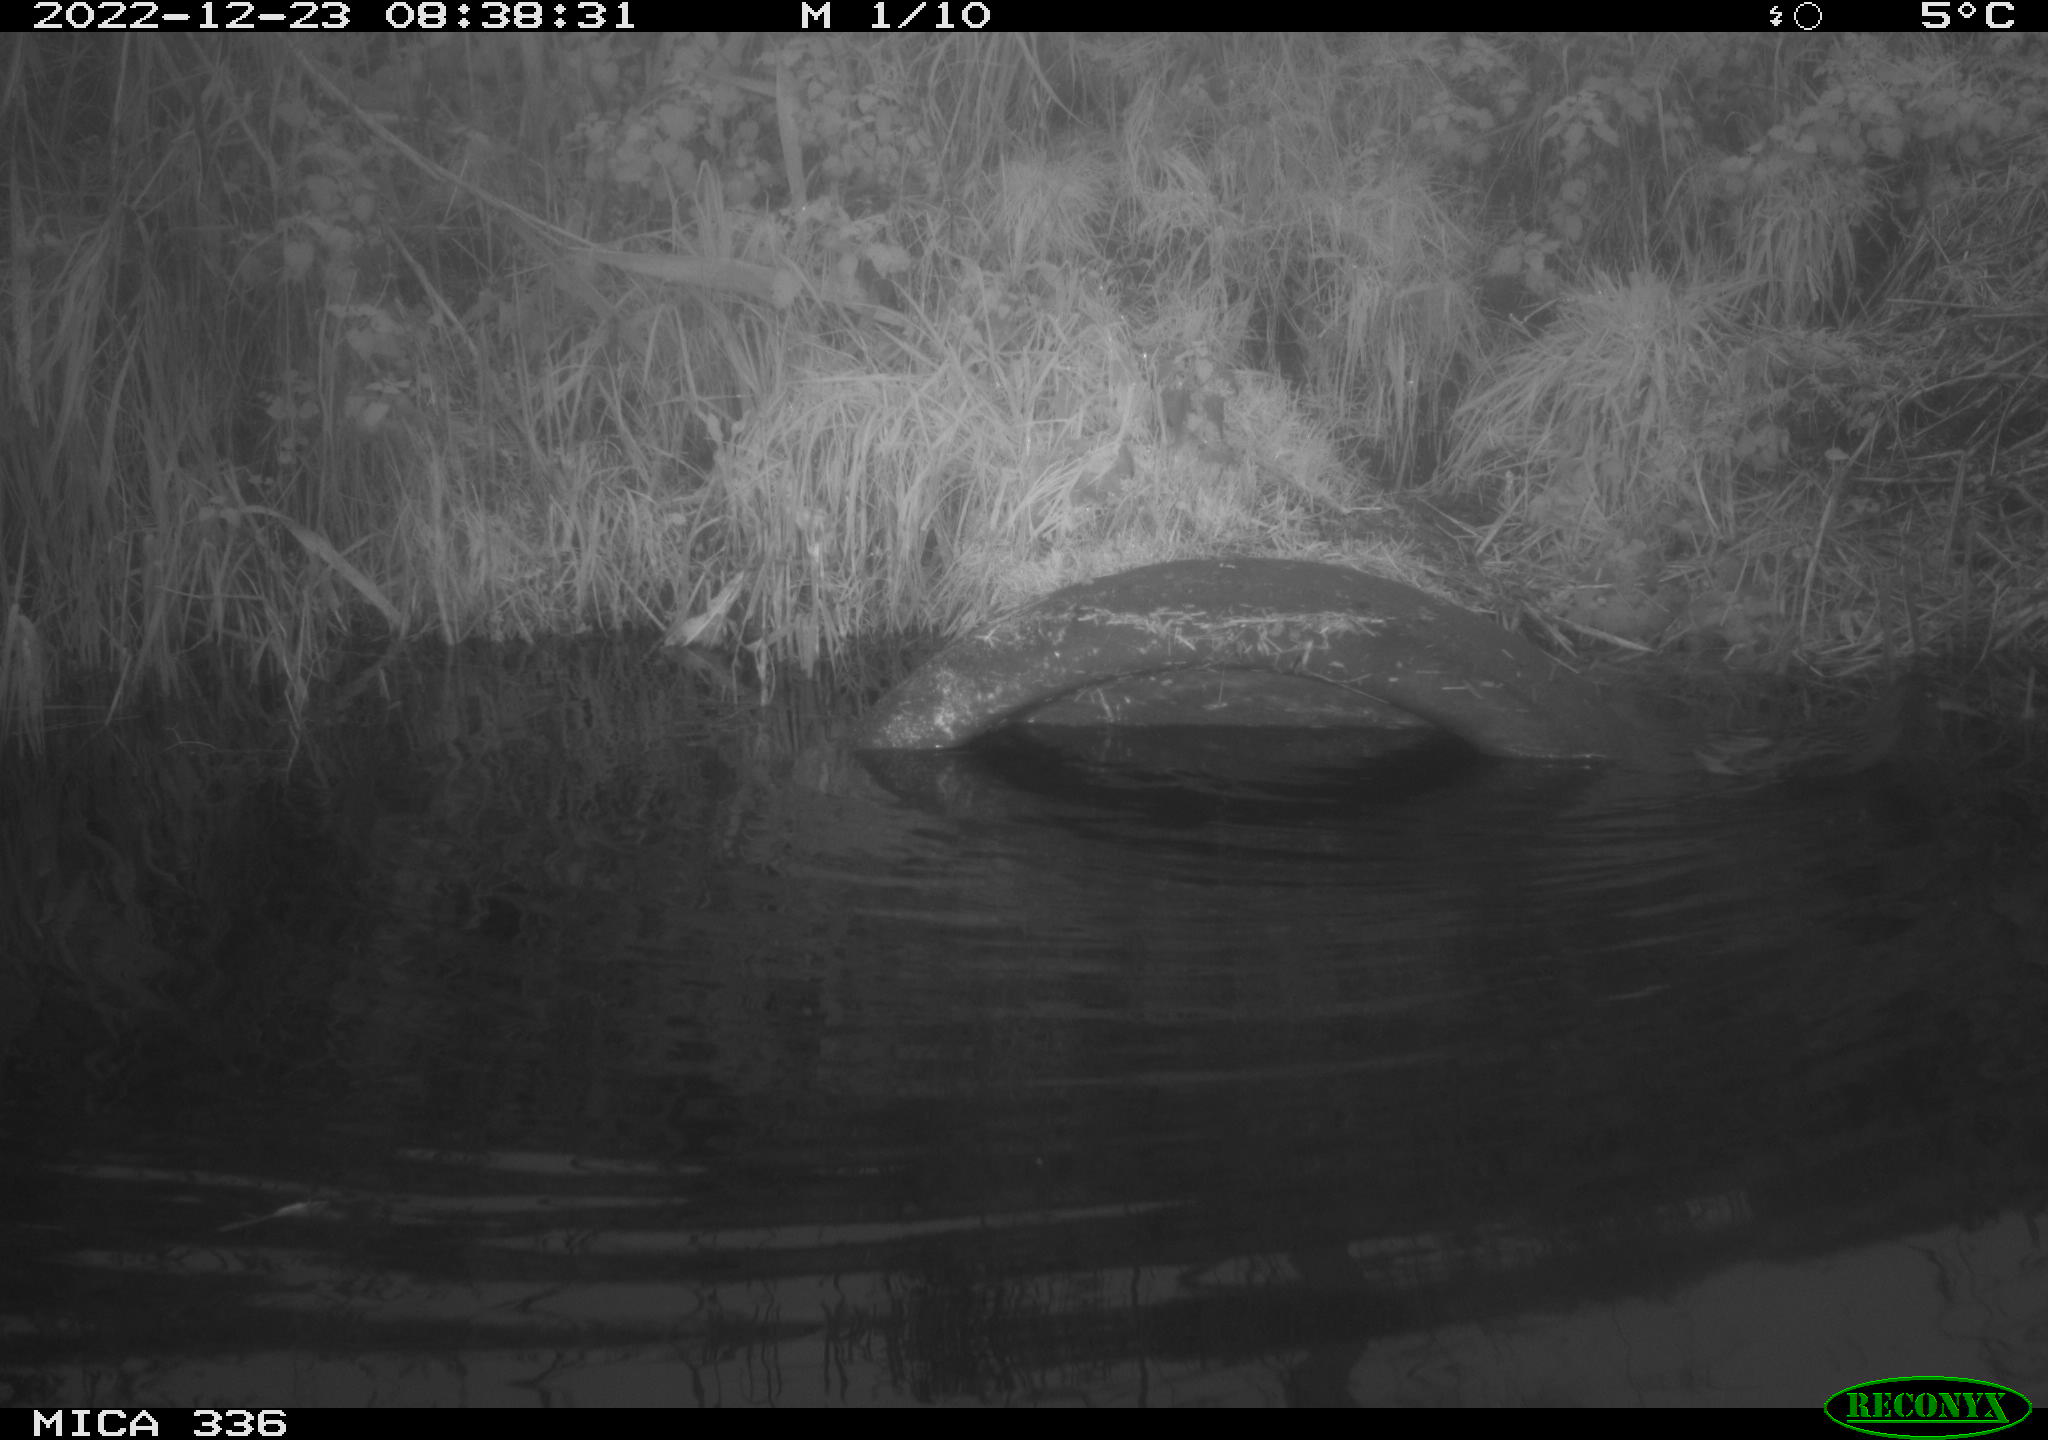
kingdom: Animalia
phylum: Chordata
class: Aves
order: Gruiformes
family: Rallidae
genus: Rallus
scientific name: Rallus aquaticus
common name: Water rail
